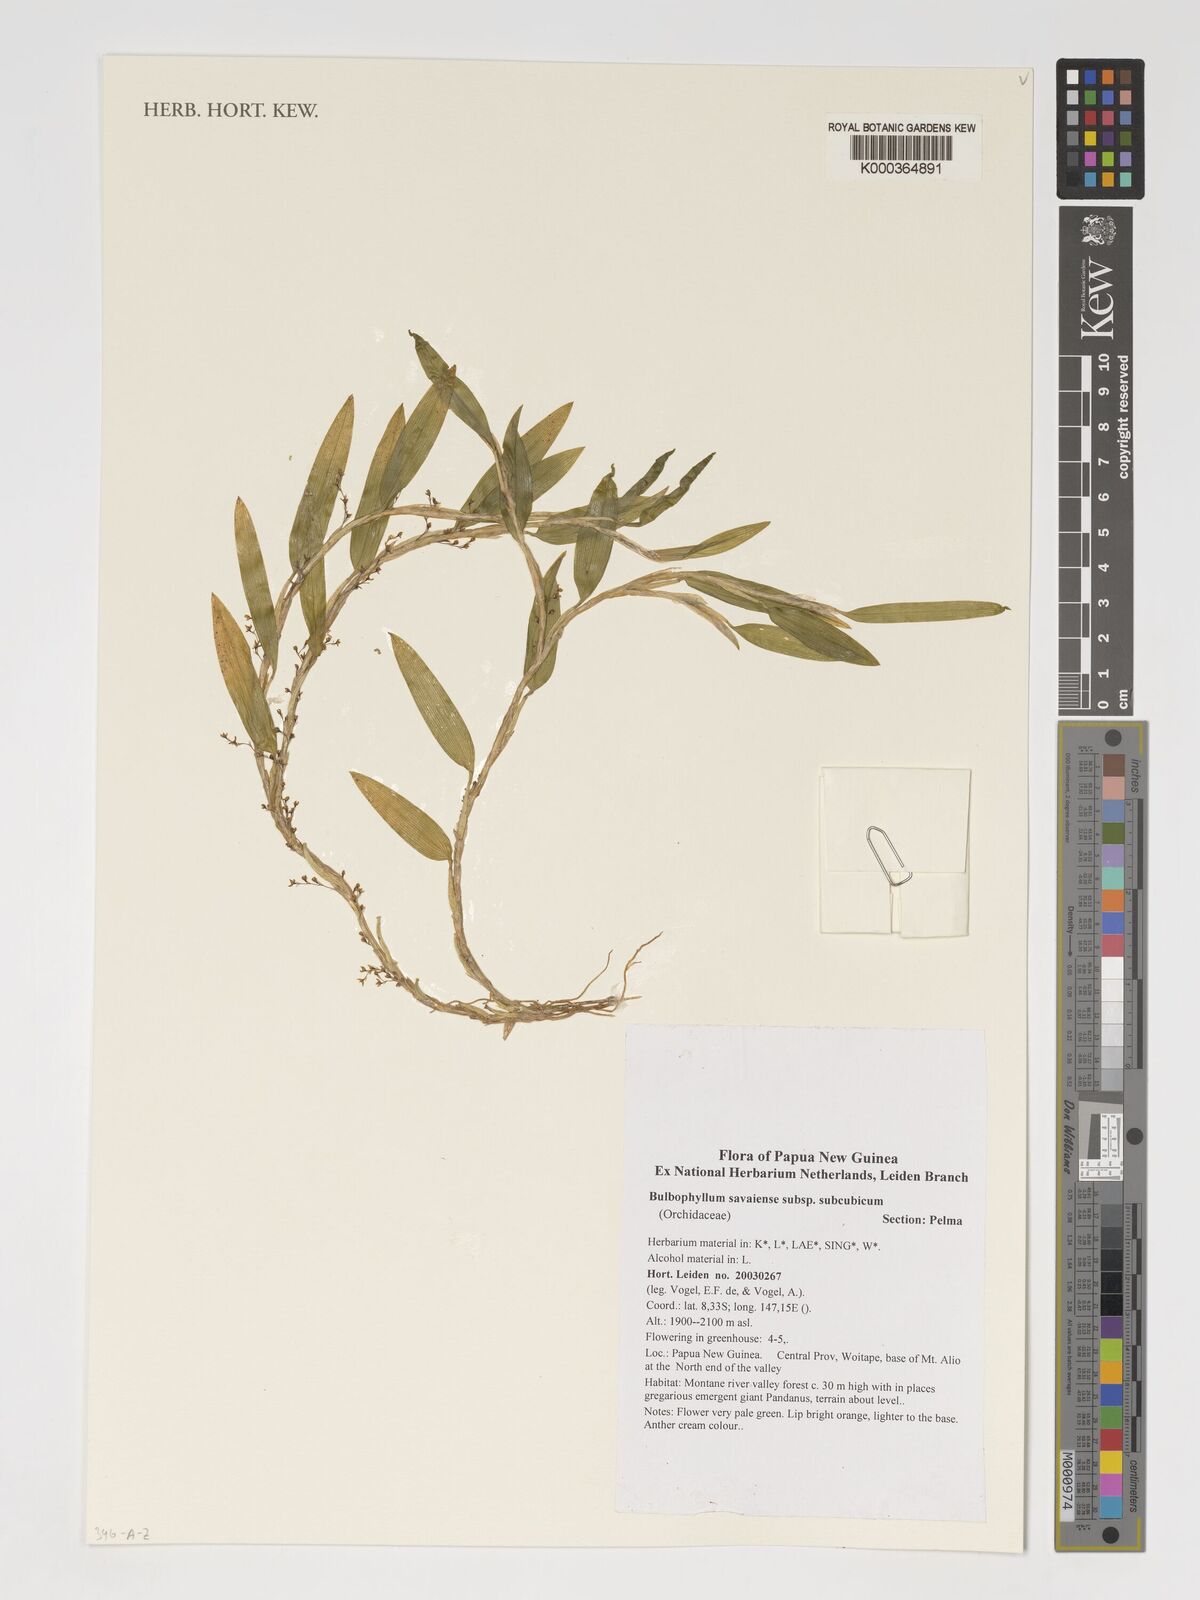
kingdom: Plantae
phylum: Tracheophyta
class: Liliopsida
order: Asparagales
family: Orchidaceae
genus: Bulbophyllum
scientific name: Bulbophyllum savaiense
